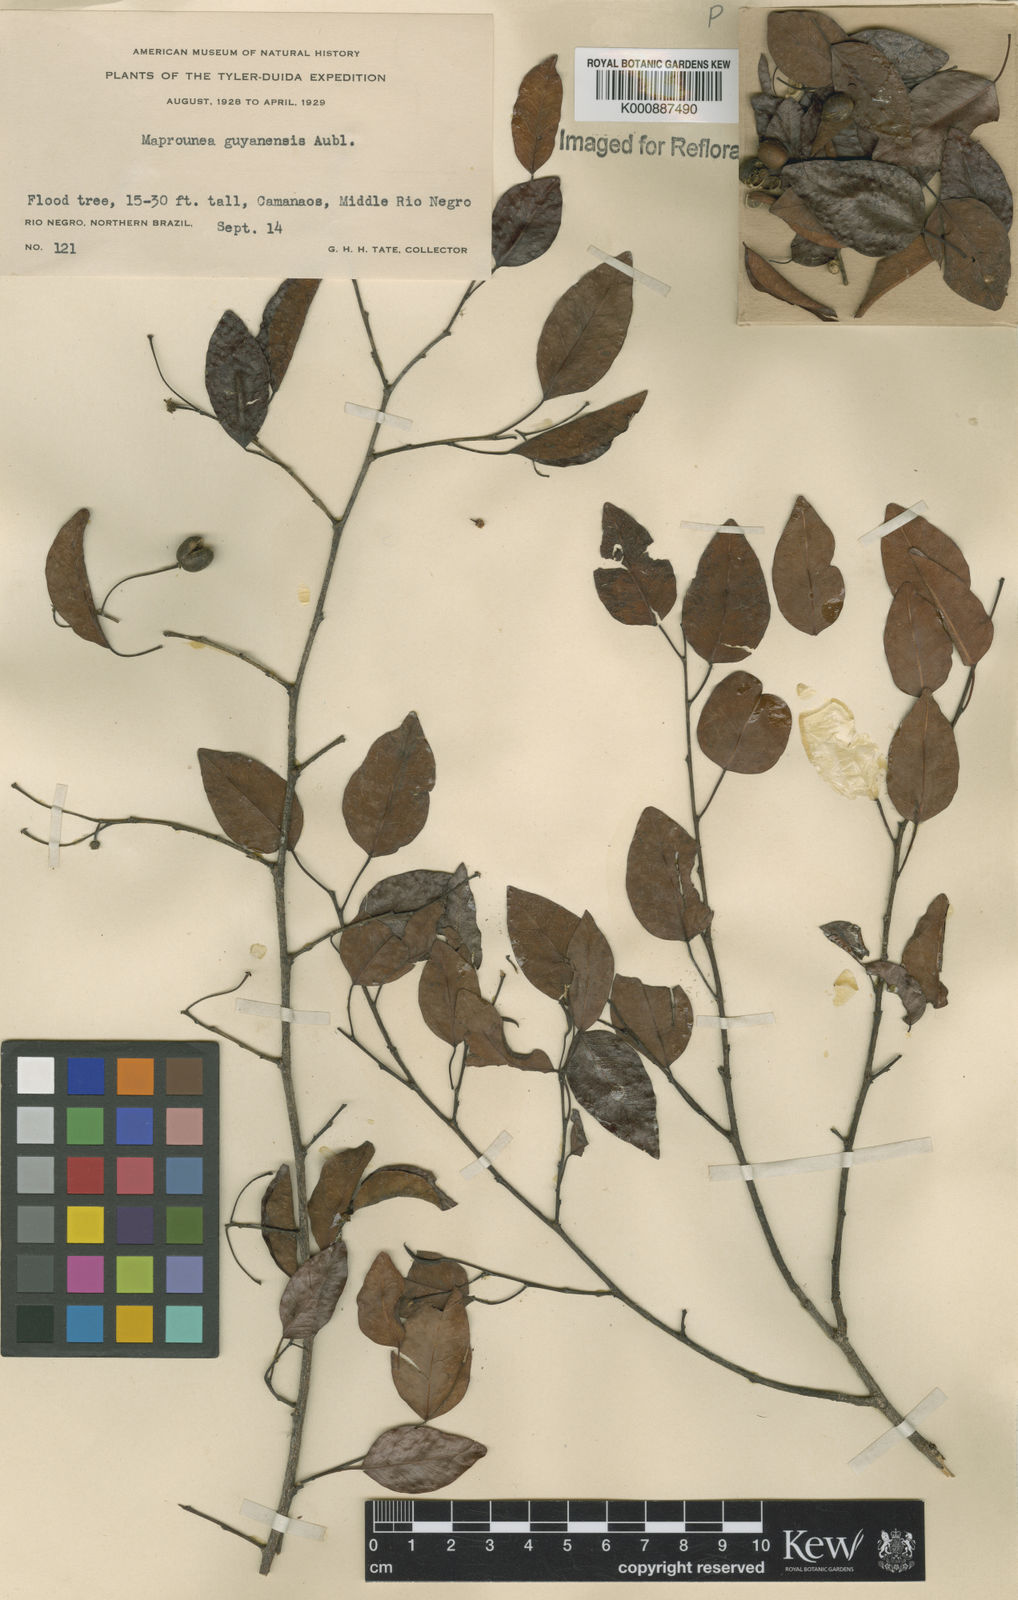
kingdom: Plantae
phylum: Tracheophyta
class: Magnoliopsida
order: Malpighiales
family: Euphorbiaceae
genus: Maprounea
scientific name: Maprounea guianensis
